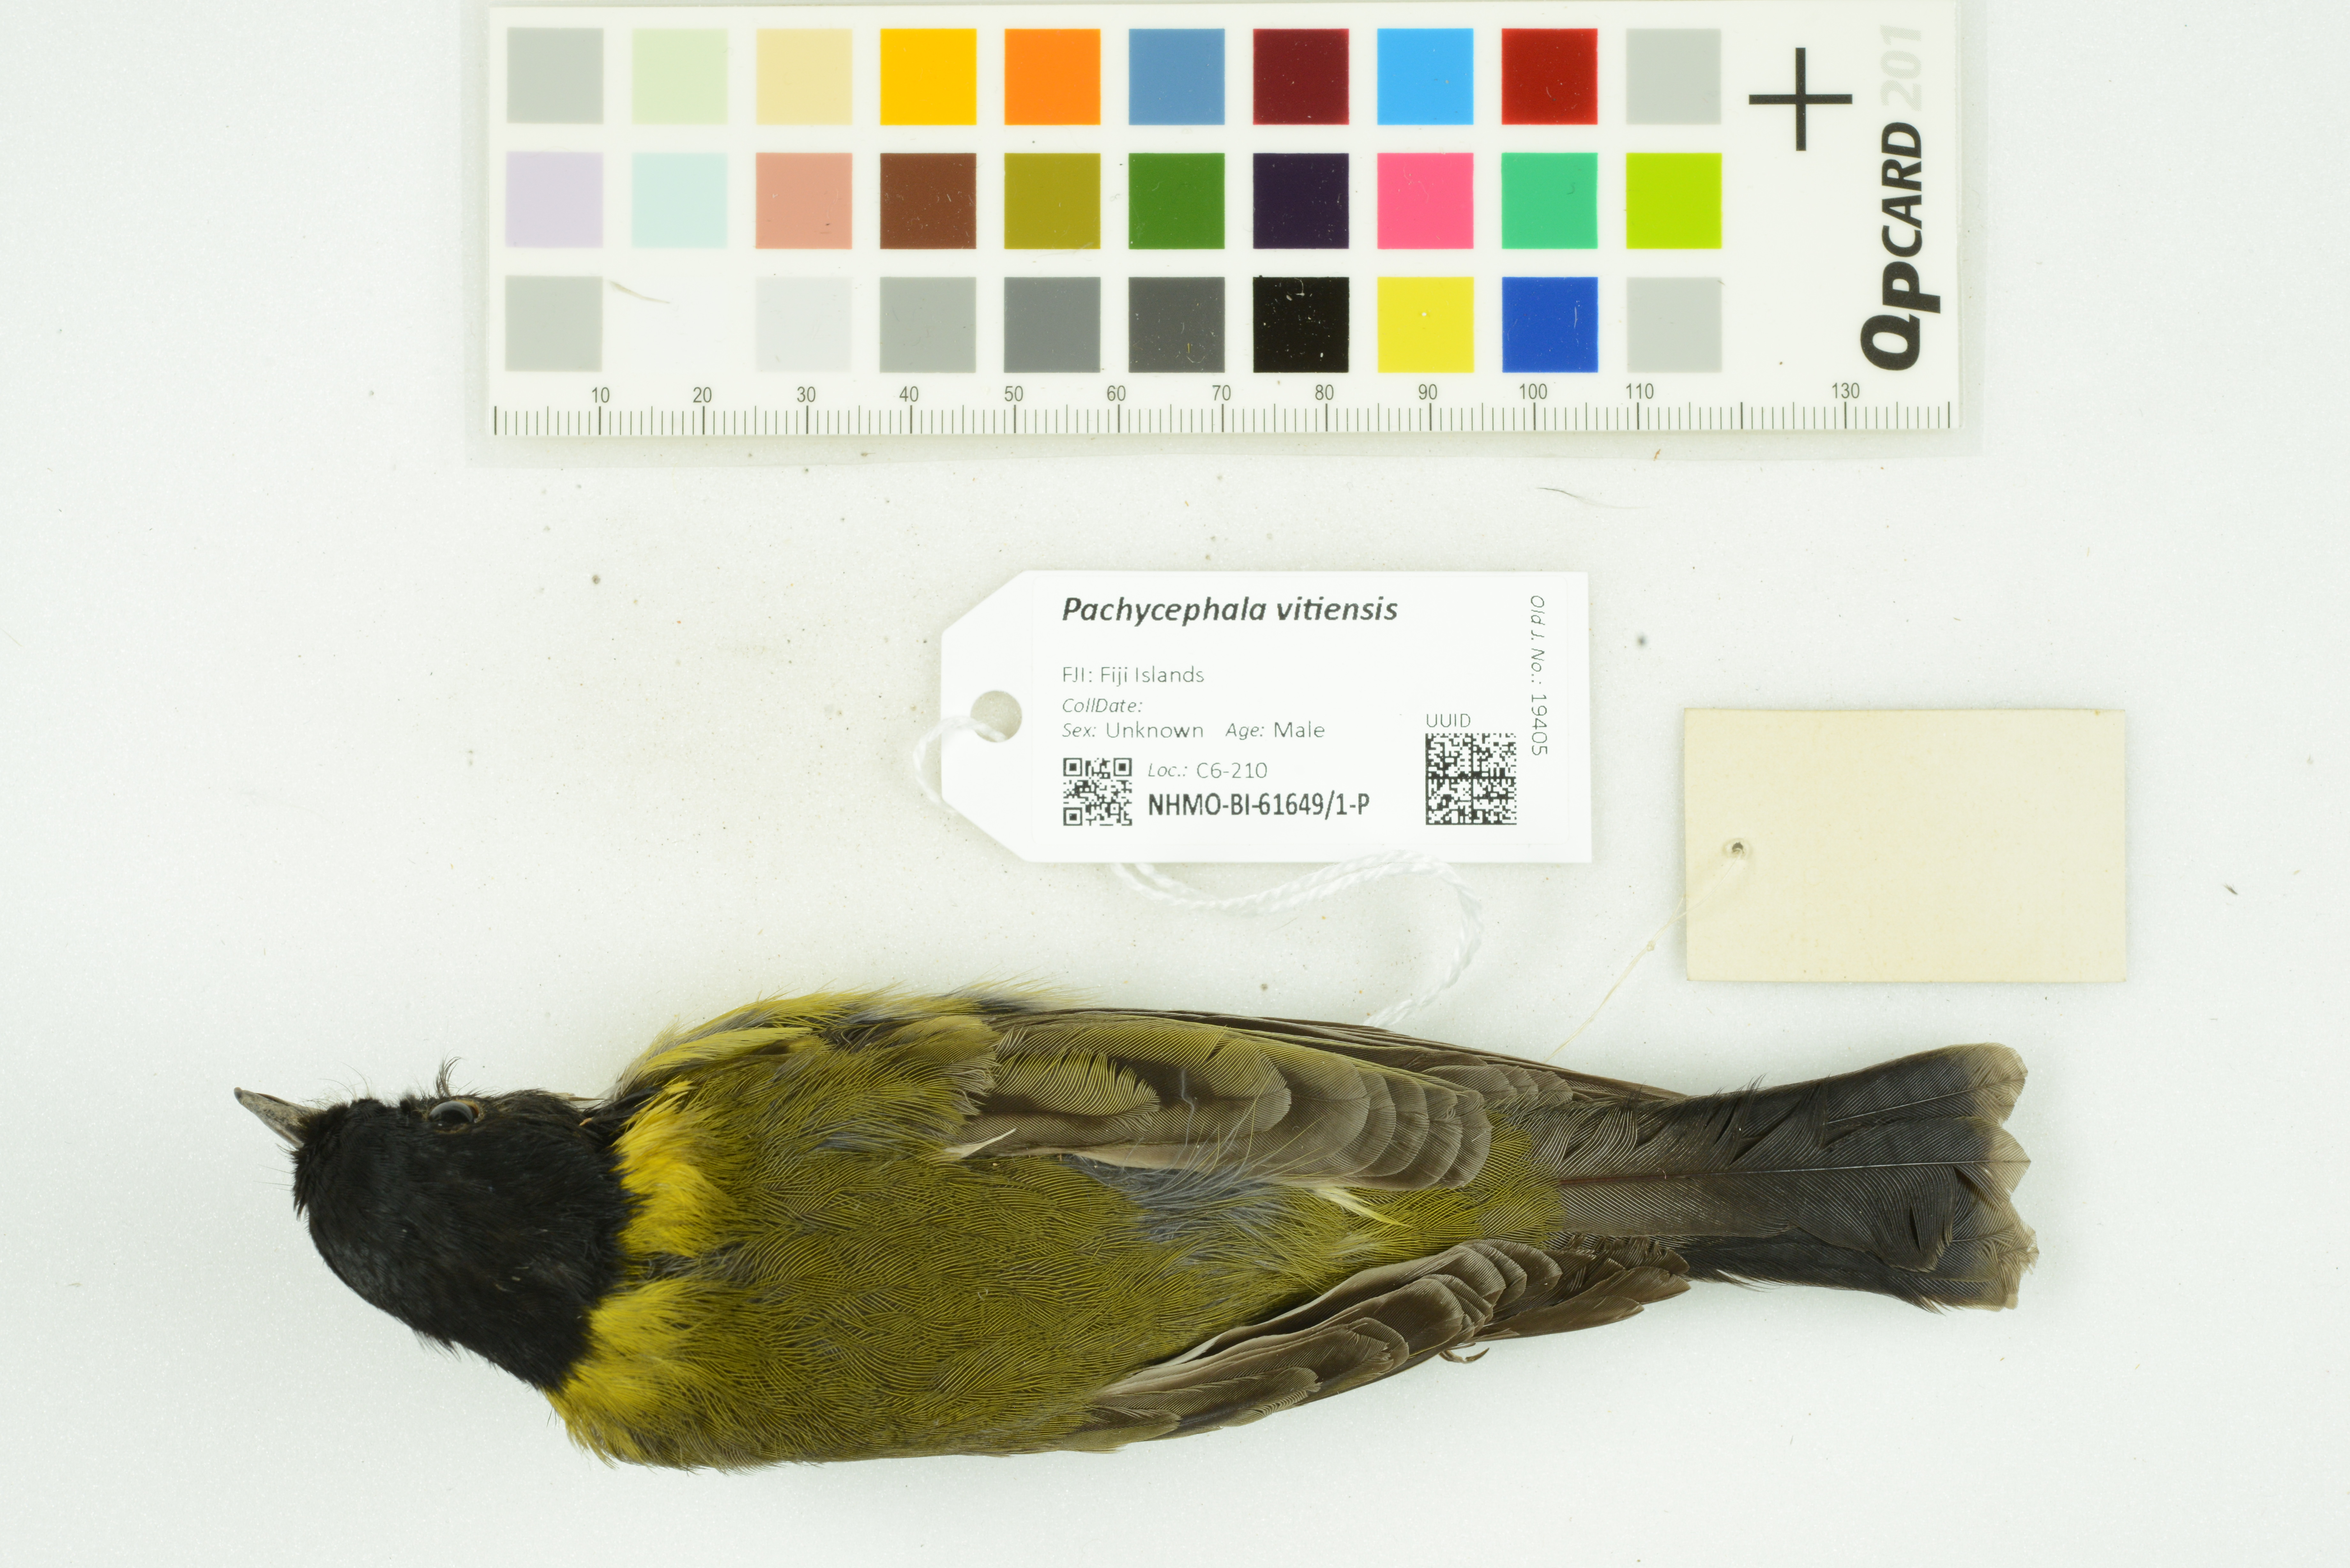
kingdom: Animalia
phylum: Chordata
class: Aves
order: Passeriformes
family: Pachycephalidae
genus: Pachycephala
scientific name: Pachycephala vitiensis
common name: Fiji whistler
